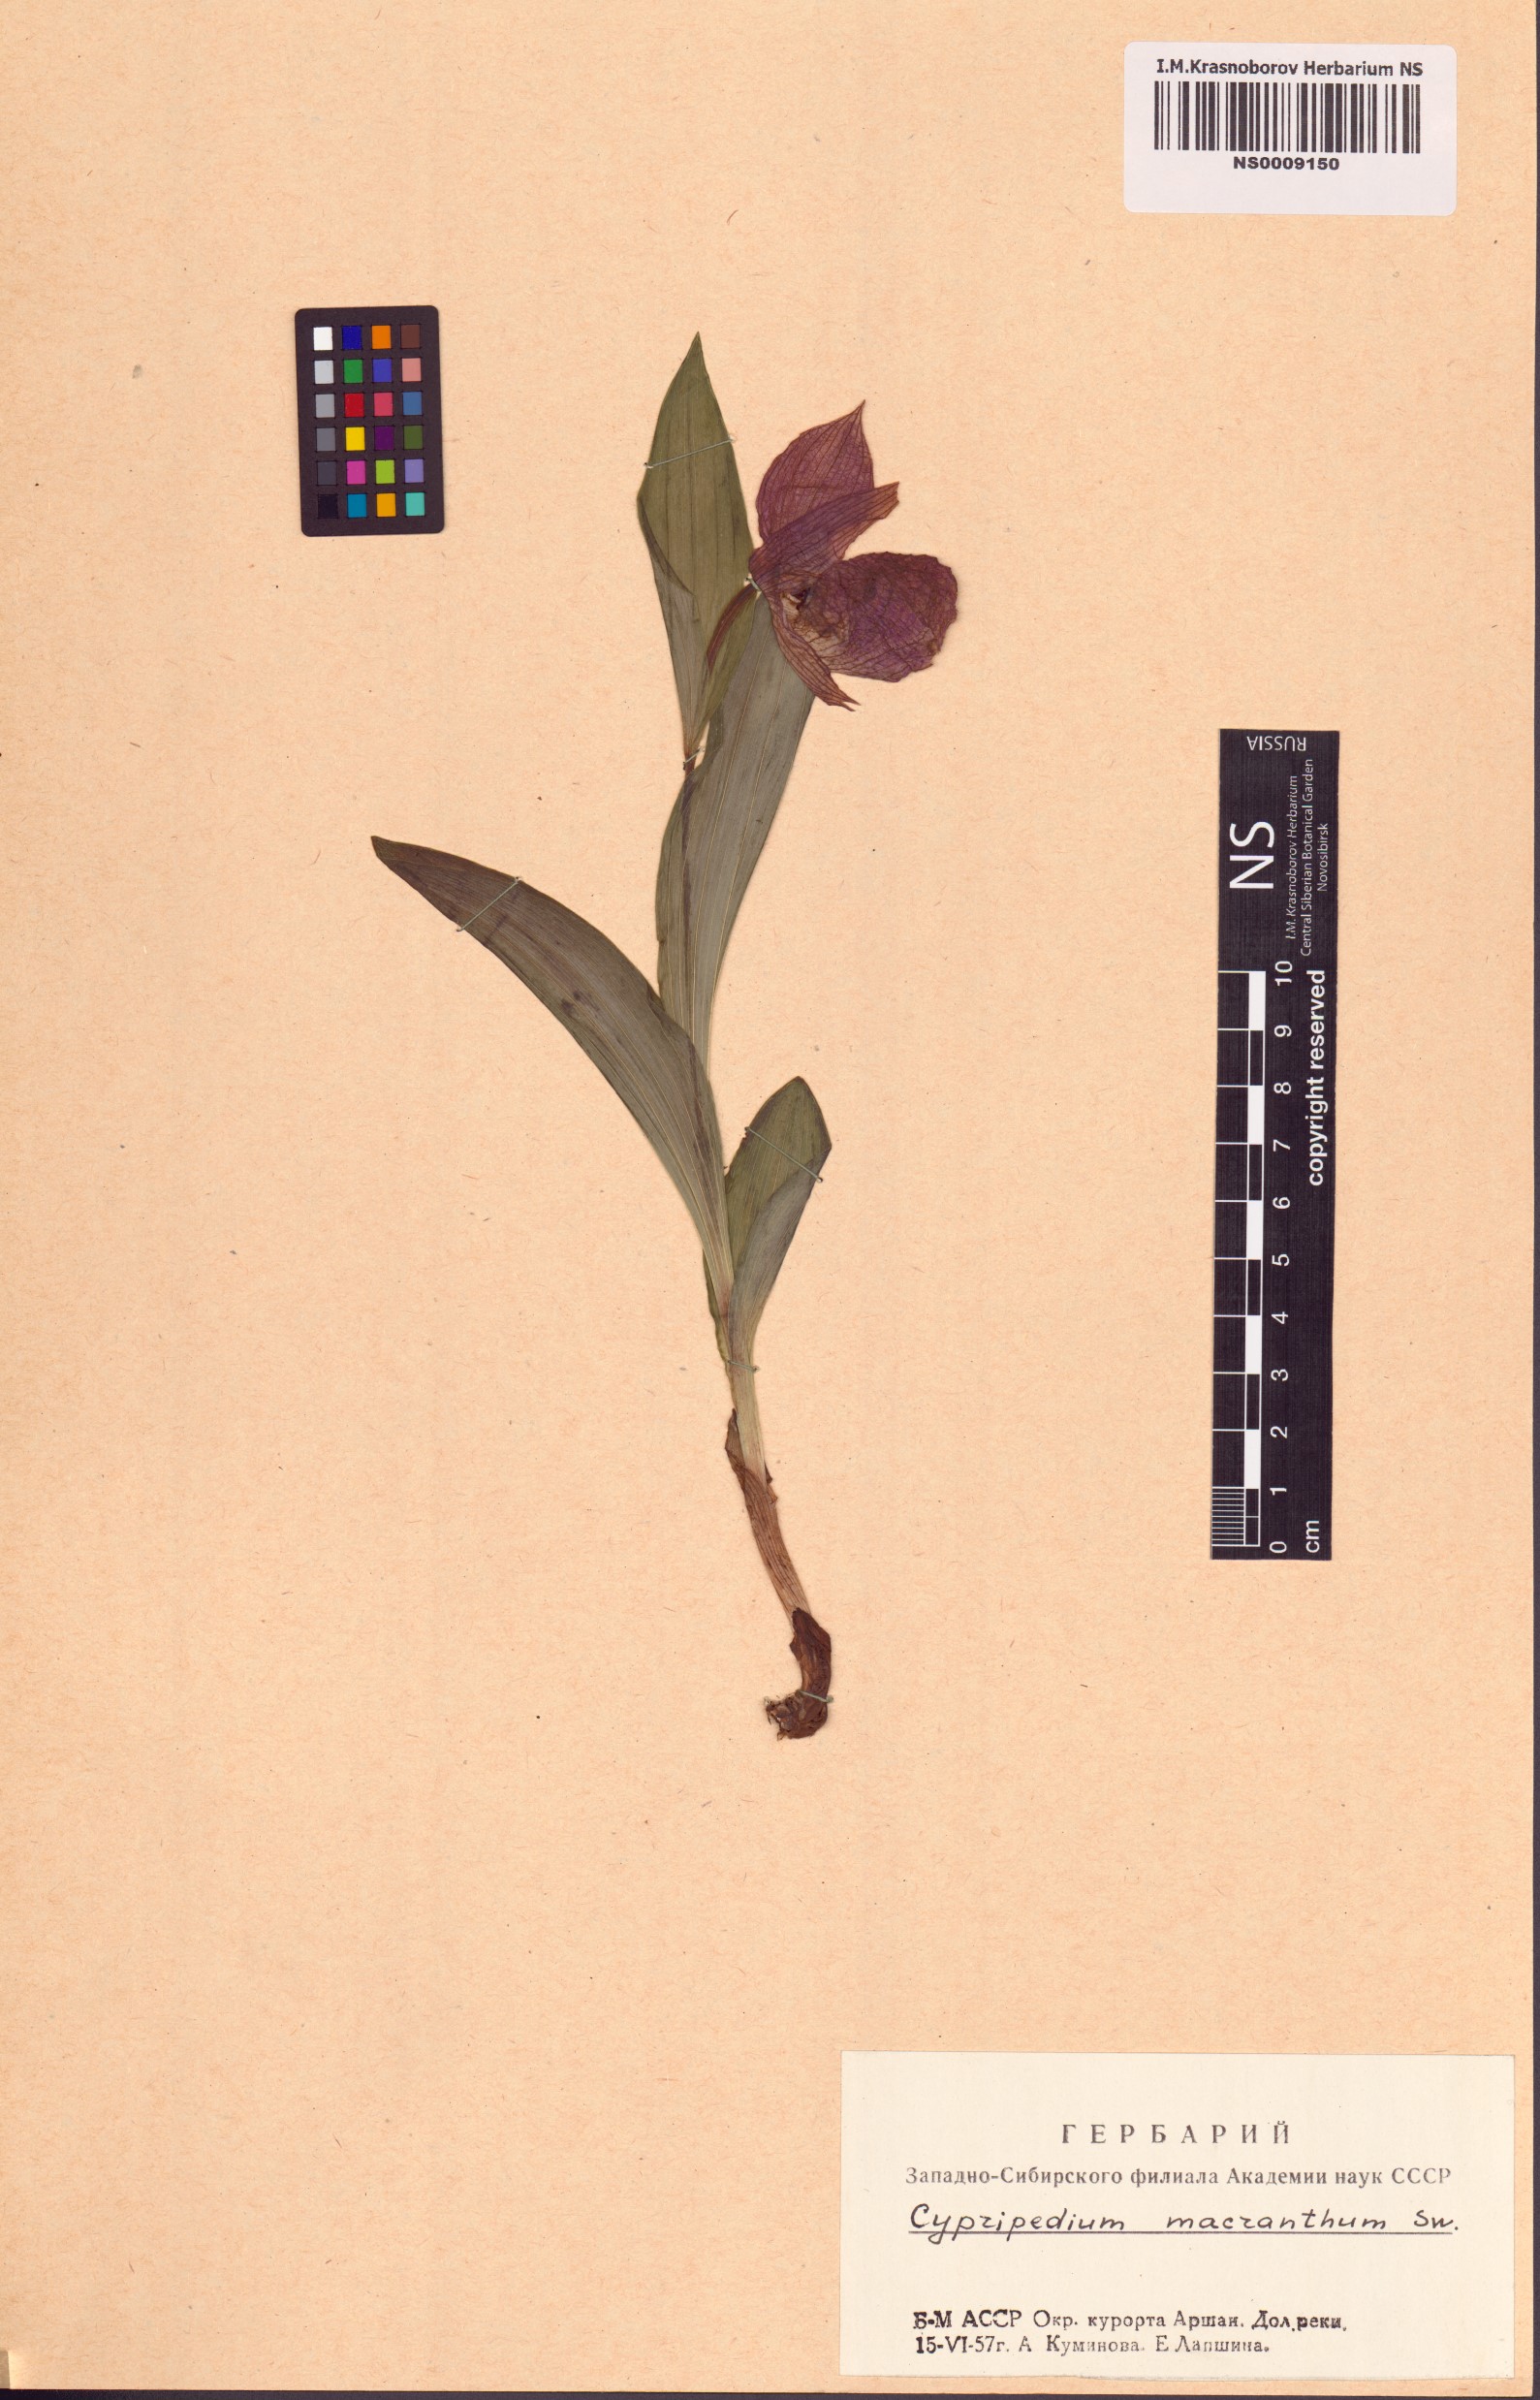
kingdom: Plantae
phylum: Tracheophyta
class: Liliopsida
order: Asparagales
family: Orchidaceae
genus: Cypripedium
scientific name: Cypripedium macranthos
